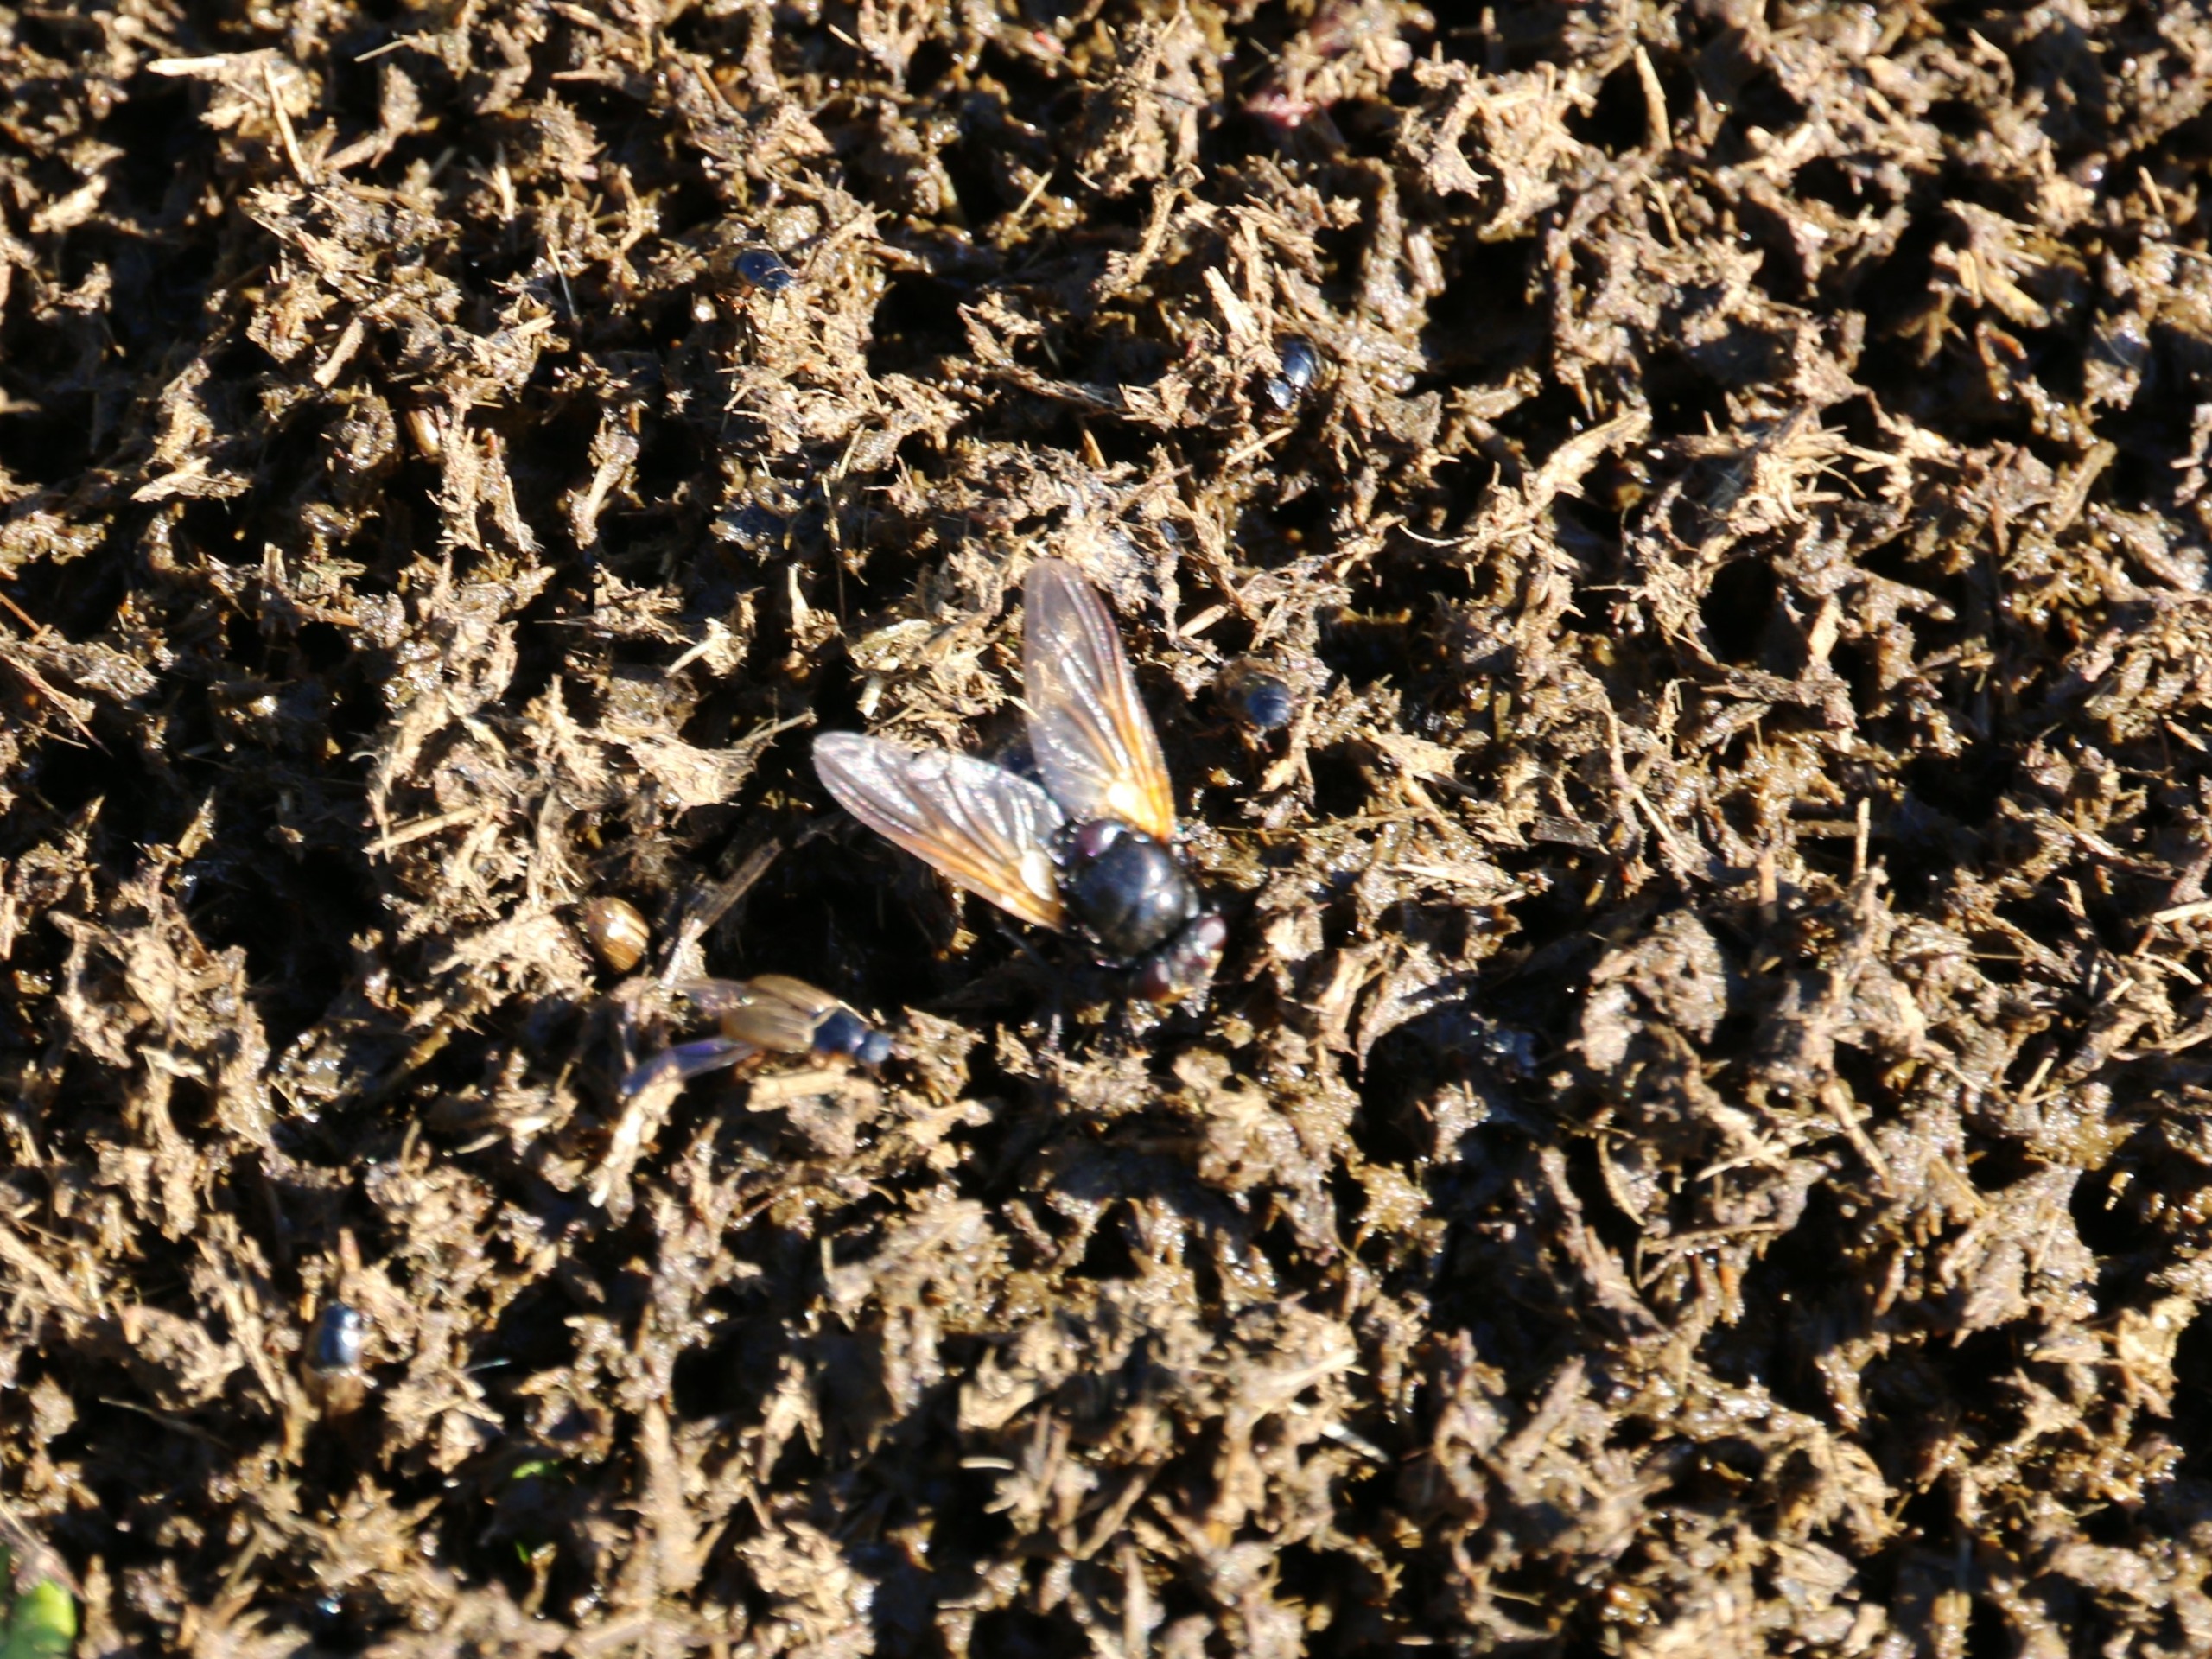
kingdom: Animalia
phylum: Arthropoda
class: Insecta
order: Diptera
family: Muscidae
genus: Mesembrina
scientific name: Mesembrina meridiana
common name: Gulvinget flue
